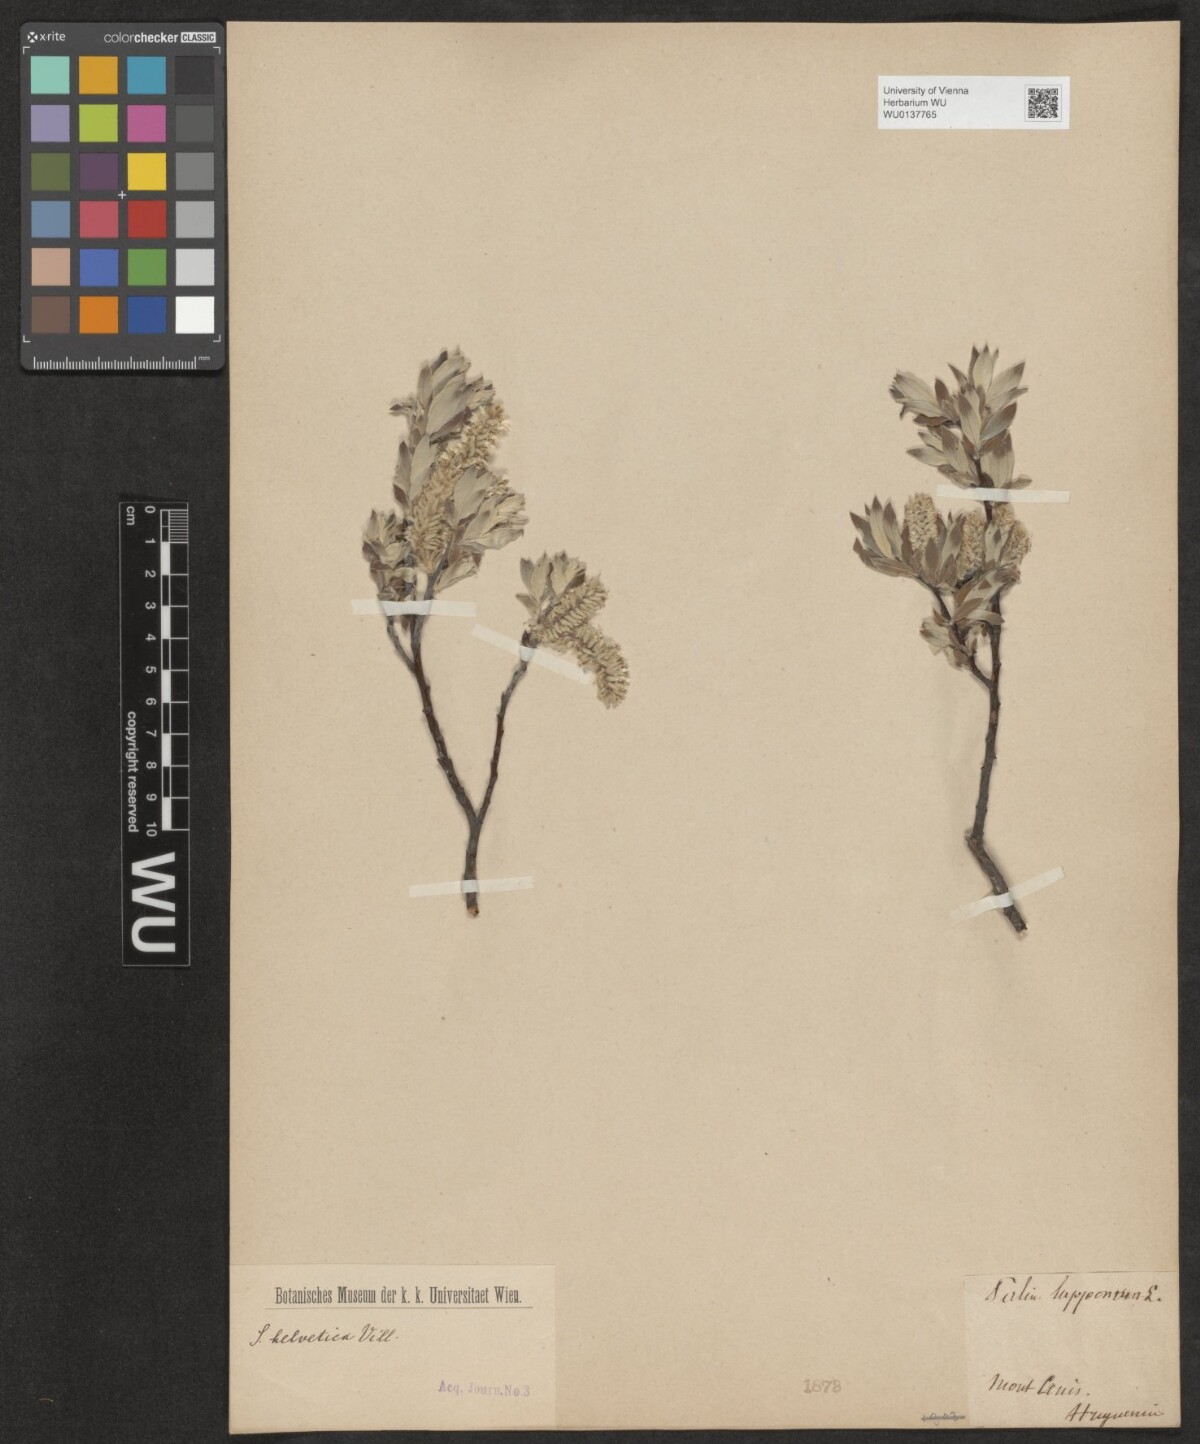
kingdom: Plantae
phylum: Tracheophyta
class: Magnoliopsida
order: Malpighiales
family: Salicaceae
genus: Salix
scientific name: Salix helvetica
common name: Swiss willow
